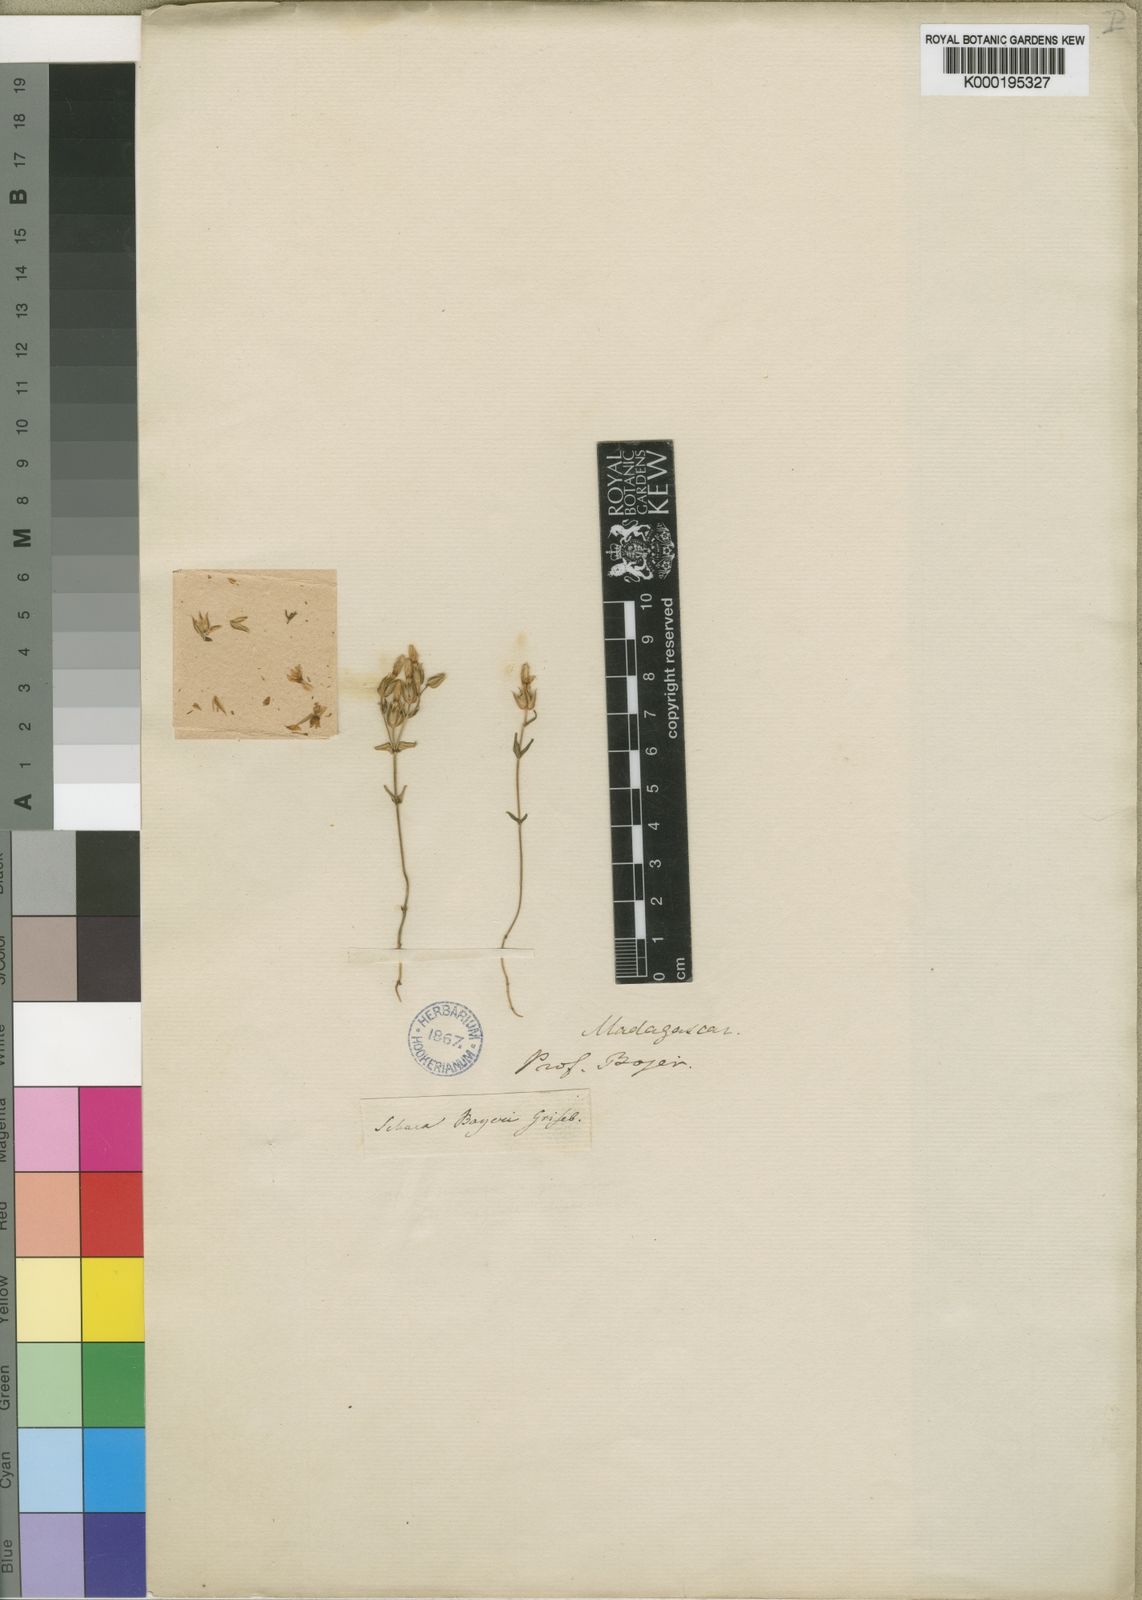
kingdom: Plantae
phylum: Tracheophyta
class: Magnoliopsida
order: Gentianales
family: Gentianaceae
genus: Sebaea
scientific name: Sebaea bojeri
